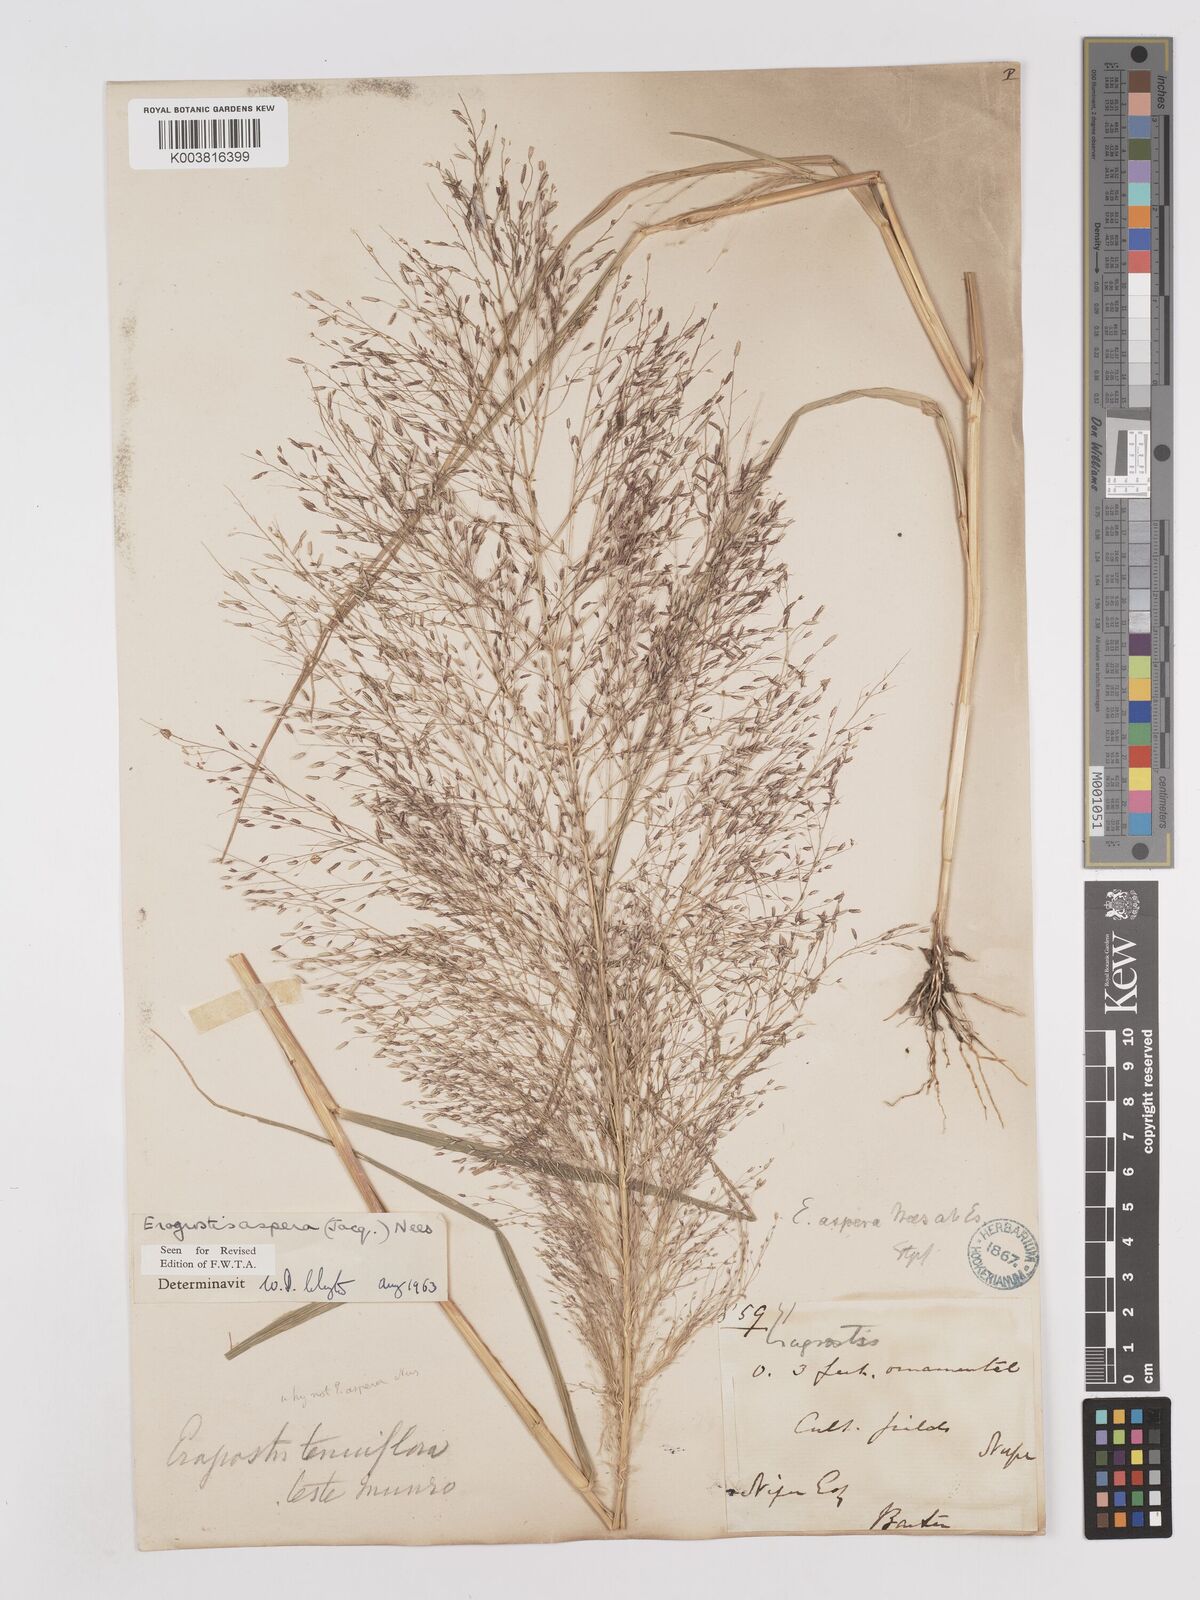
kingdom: Plantae
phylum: Tracheophyta
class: Liliopsida
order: Poales
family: Poaceae
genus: Eragrostis
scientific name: Eragrostis aspera
